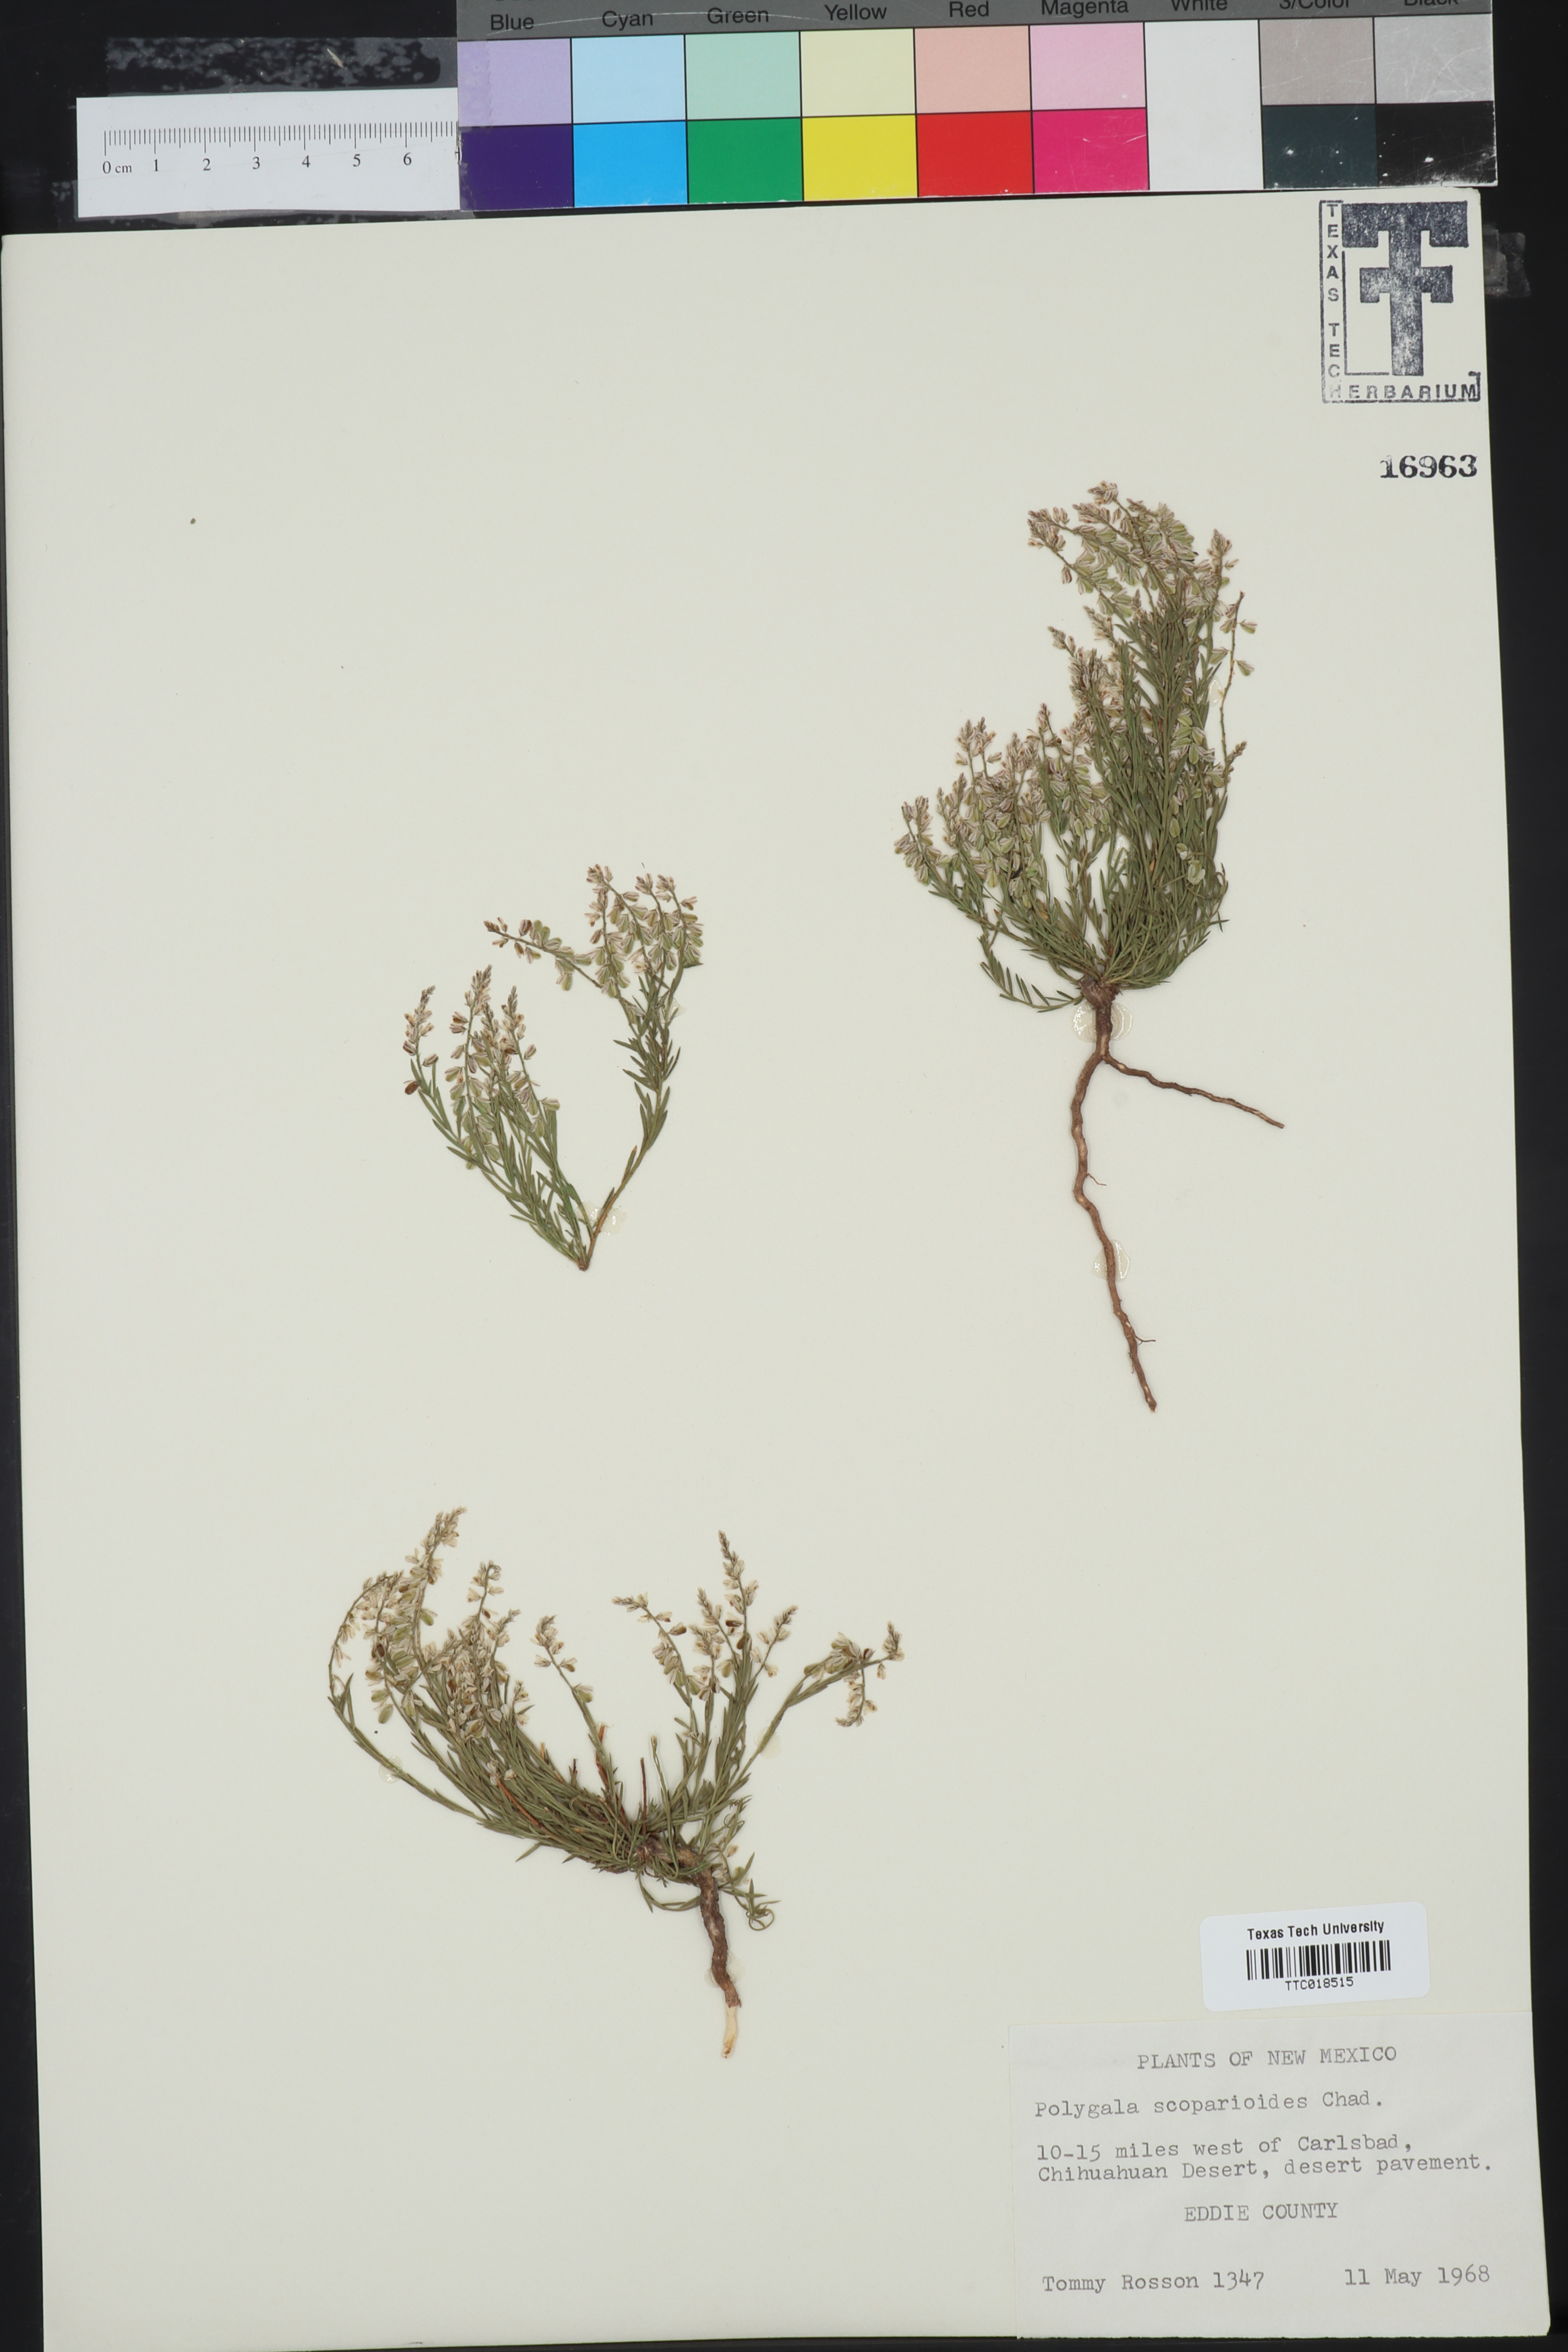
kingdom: Plantae
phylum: Tracheophyta
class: Magnoliopsida
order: Fabales
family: Polygalaceae
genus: Polygala
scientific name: Polygala scoparioides
